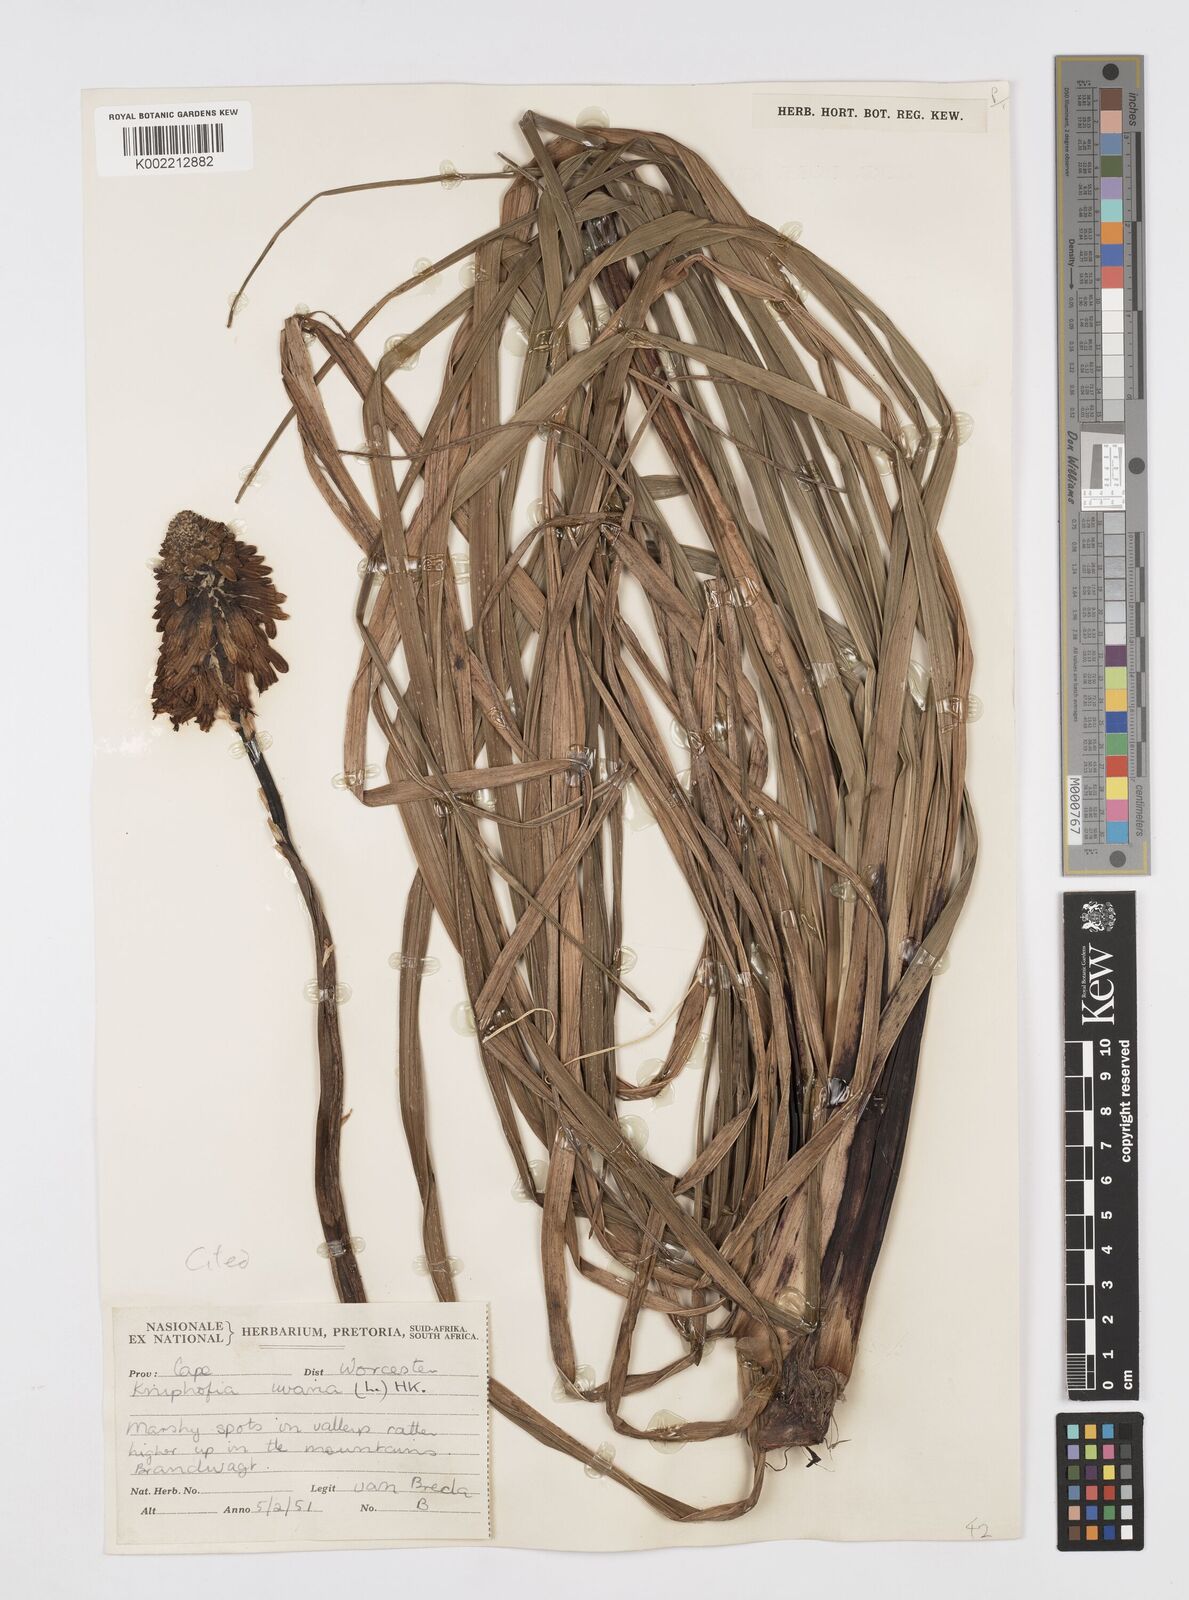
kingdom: Plantae
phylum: Tracheophyta
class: Liliopsida
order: Asparagales
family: Asphodelaceae
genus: Kniphofia
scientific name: Kniphofia uvaria
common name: Red-hot-poker
